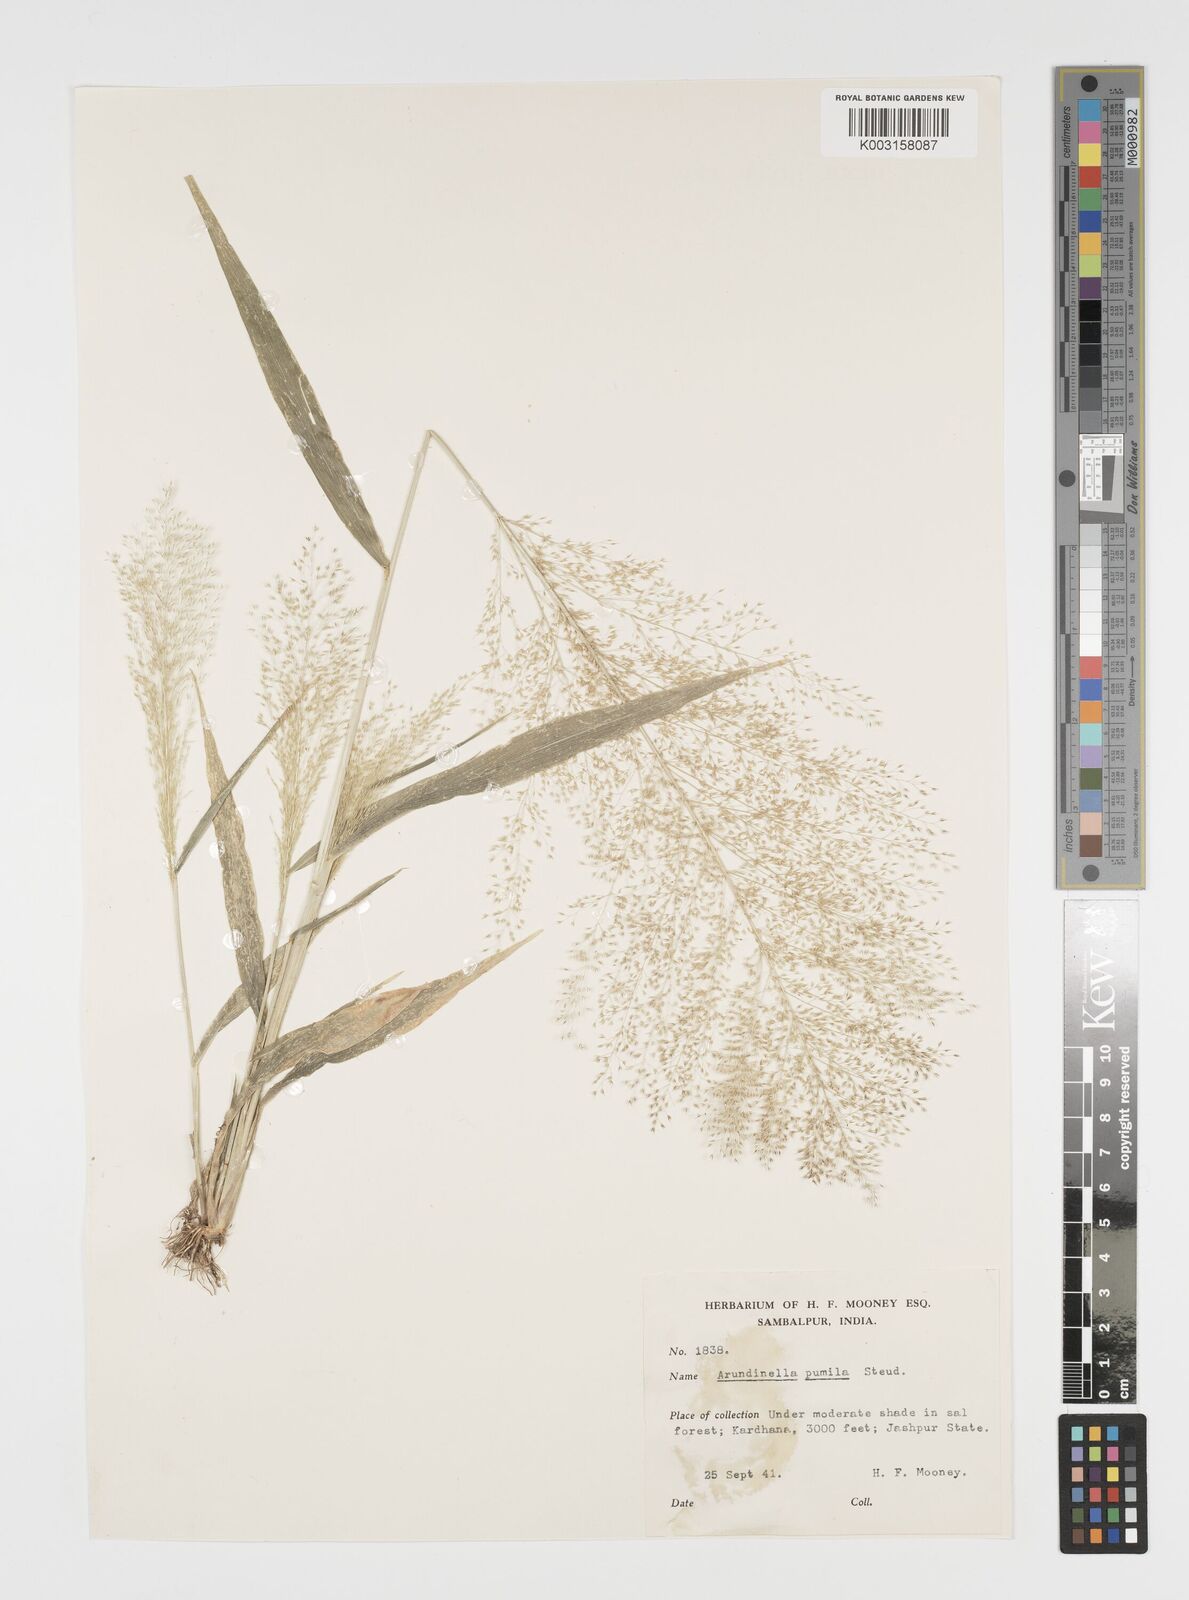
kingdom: Plantae
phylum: Tracheophyta
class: Liliopsida
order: Poales
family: Poaceae
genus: Arundinella
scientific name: Arundinella pumila
